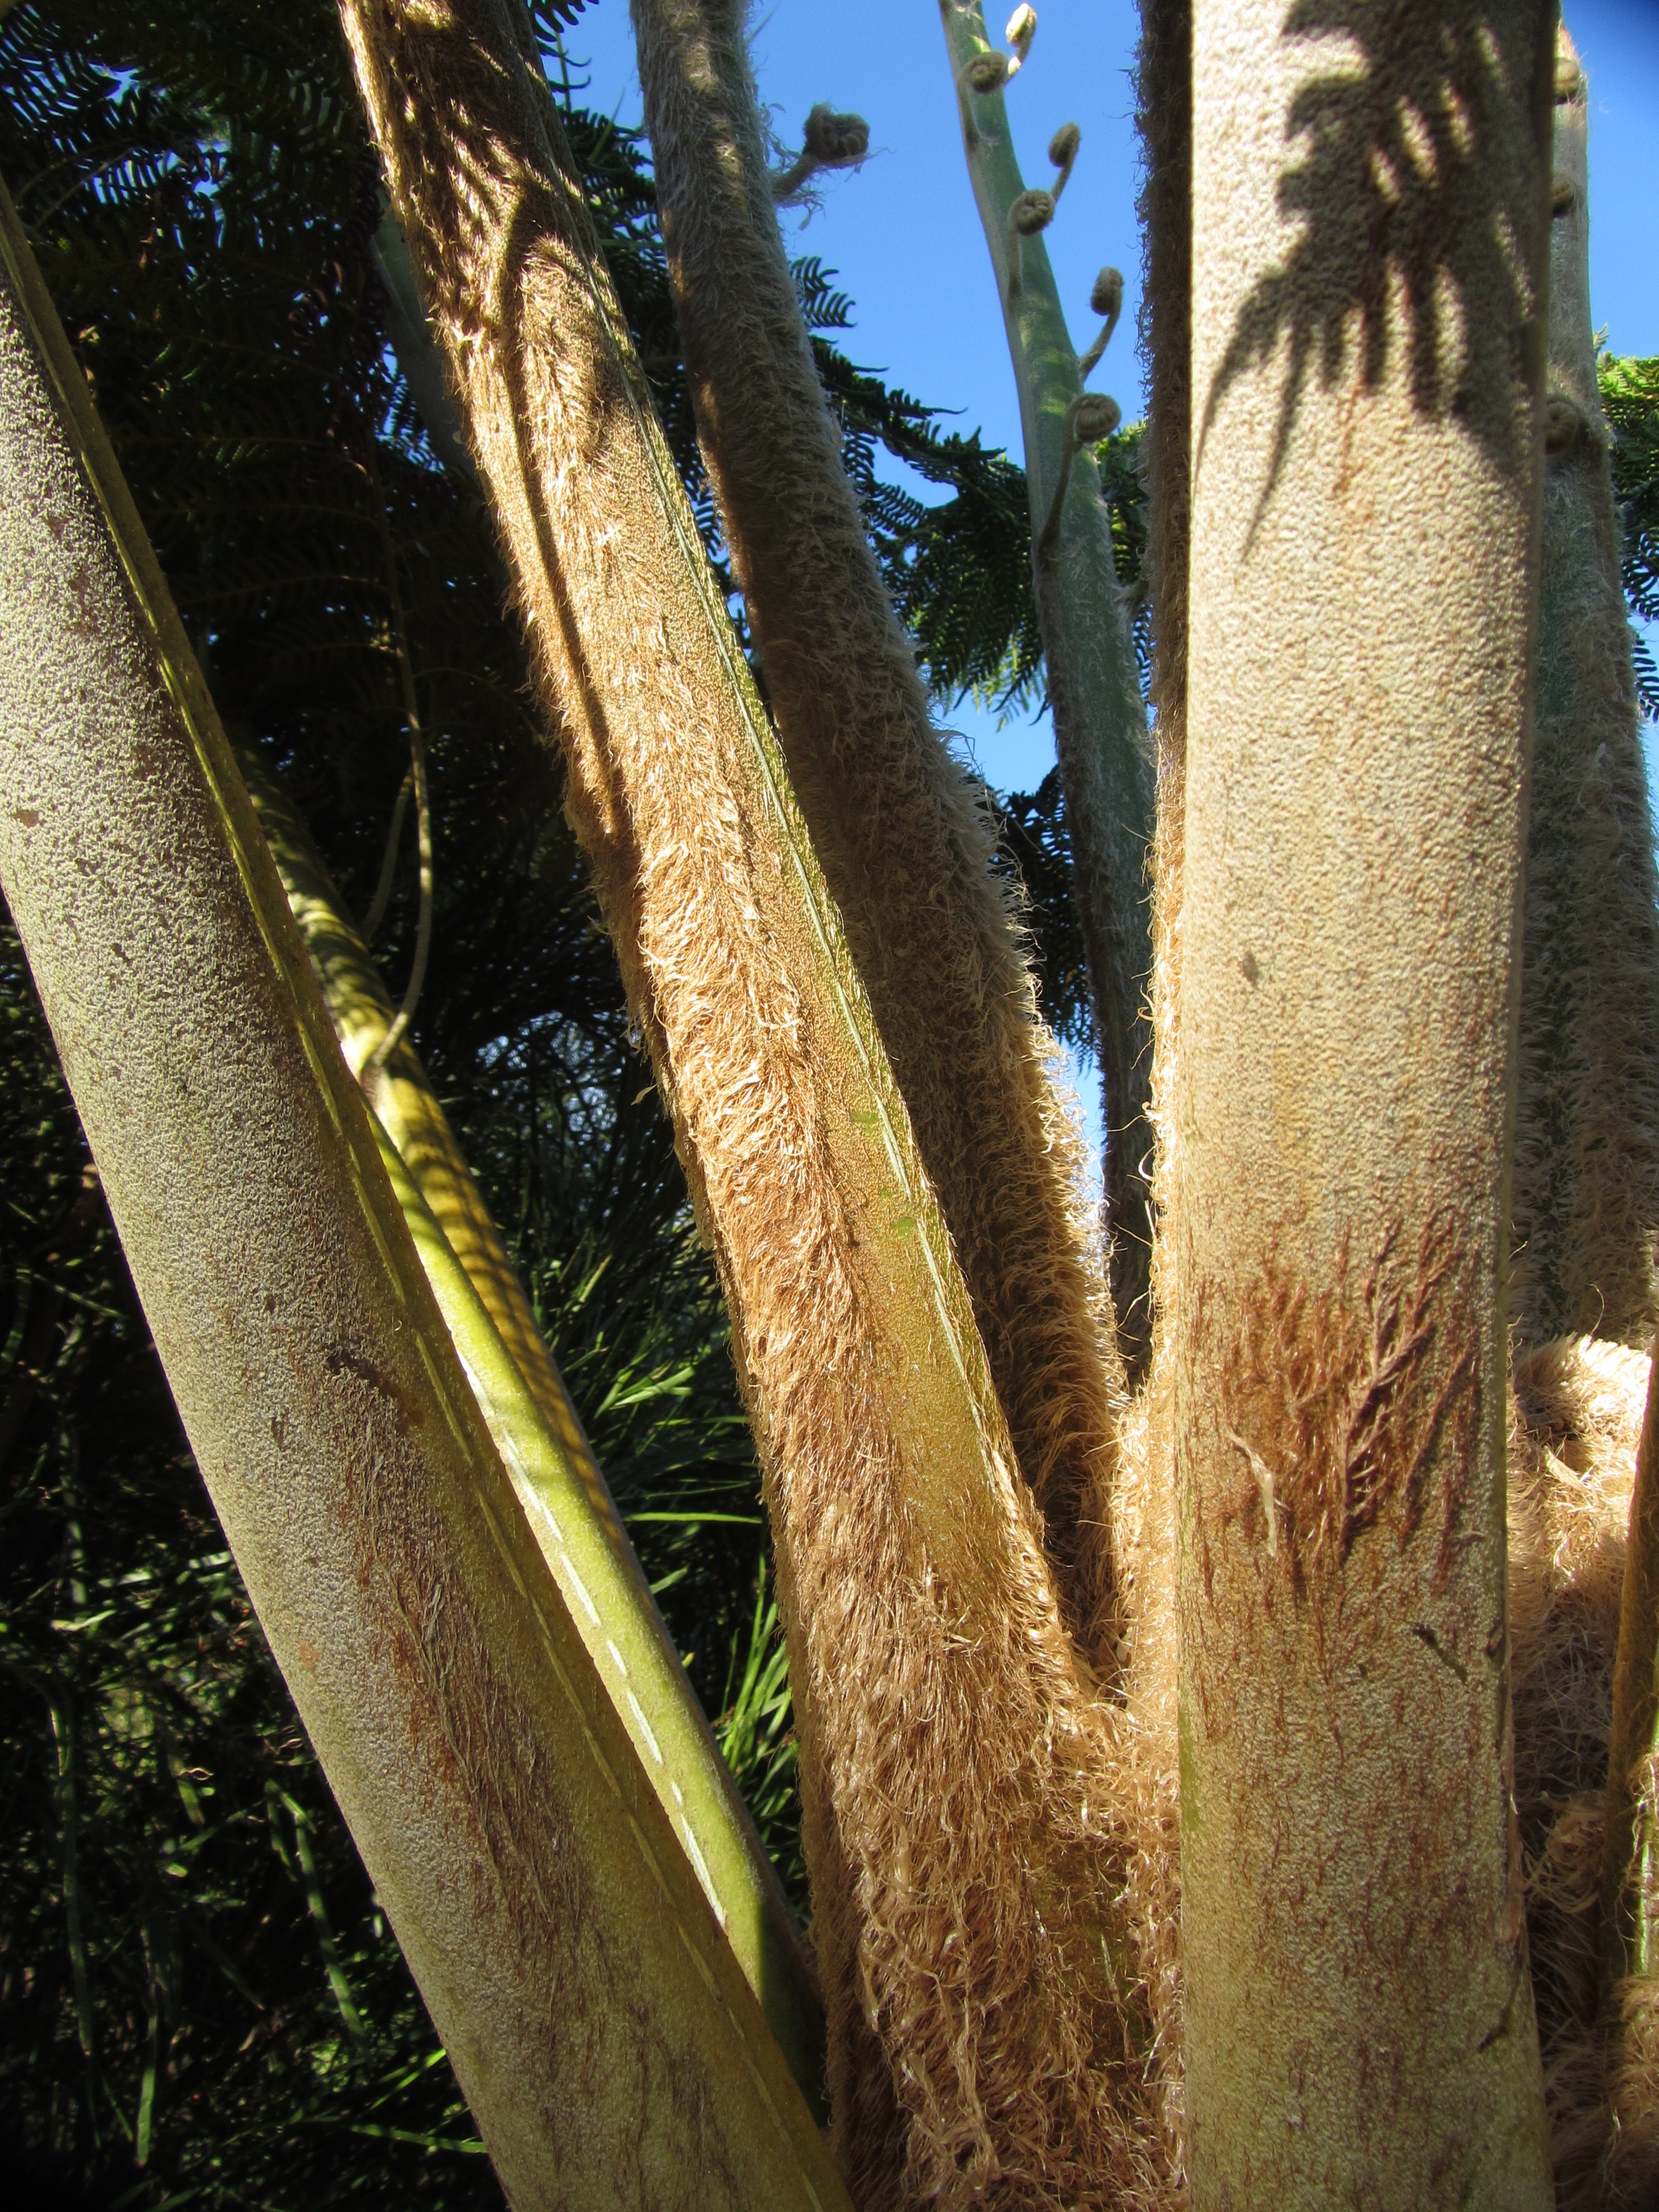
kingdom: Plantae
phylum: Tracheophyta
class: Polypodiopsida
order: Cyatheales
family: Cyatheaceae
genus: Sphaeropteris
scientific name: Sphaeropteris excelsa
